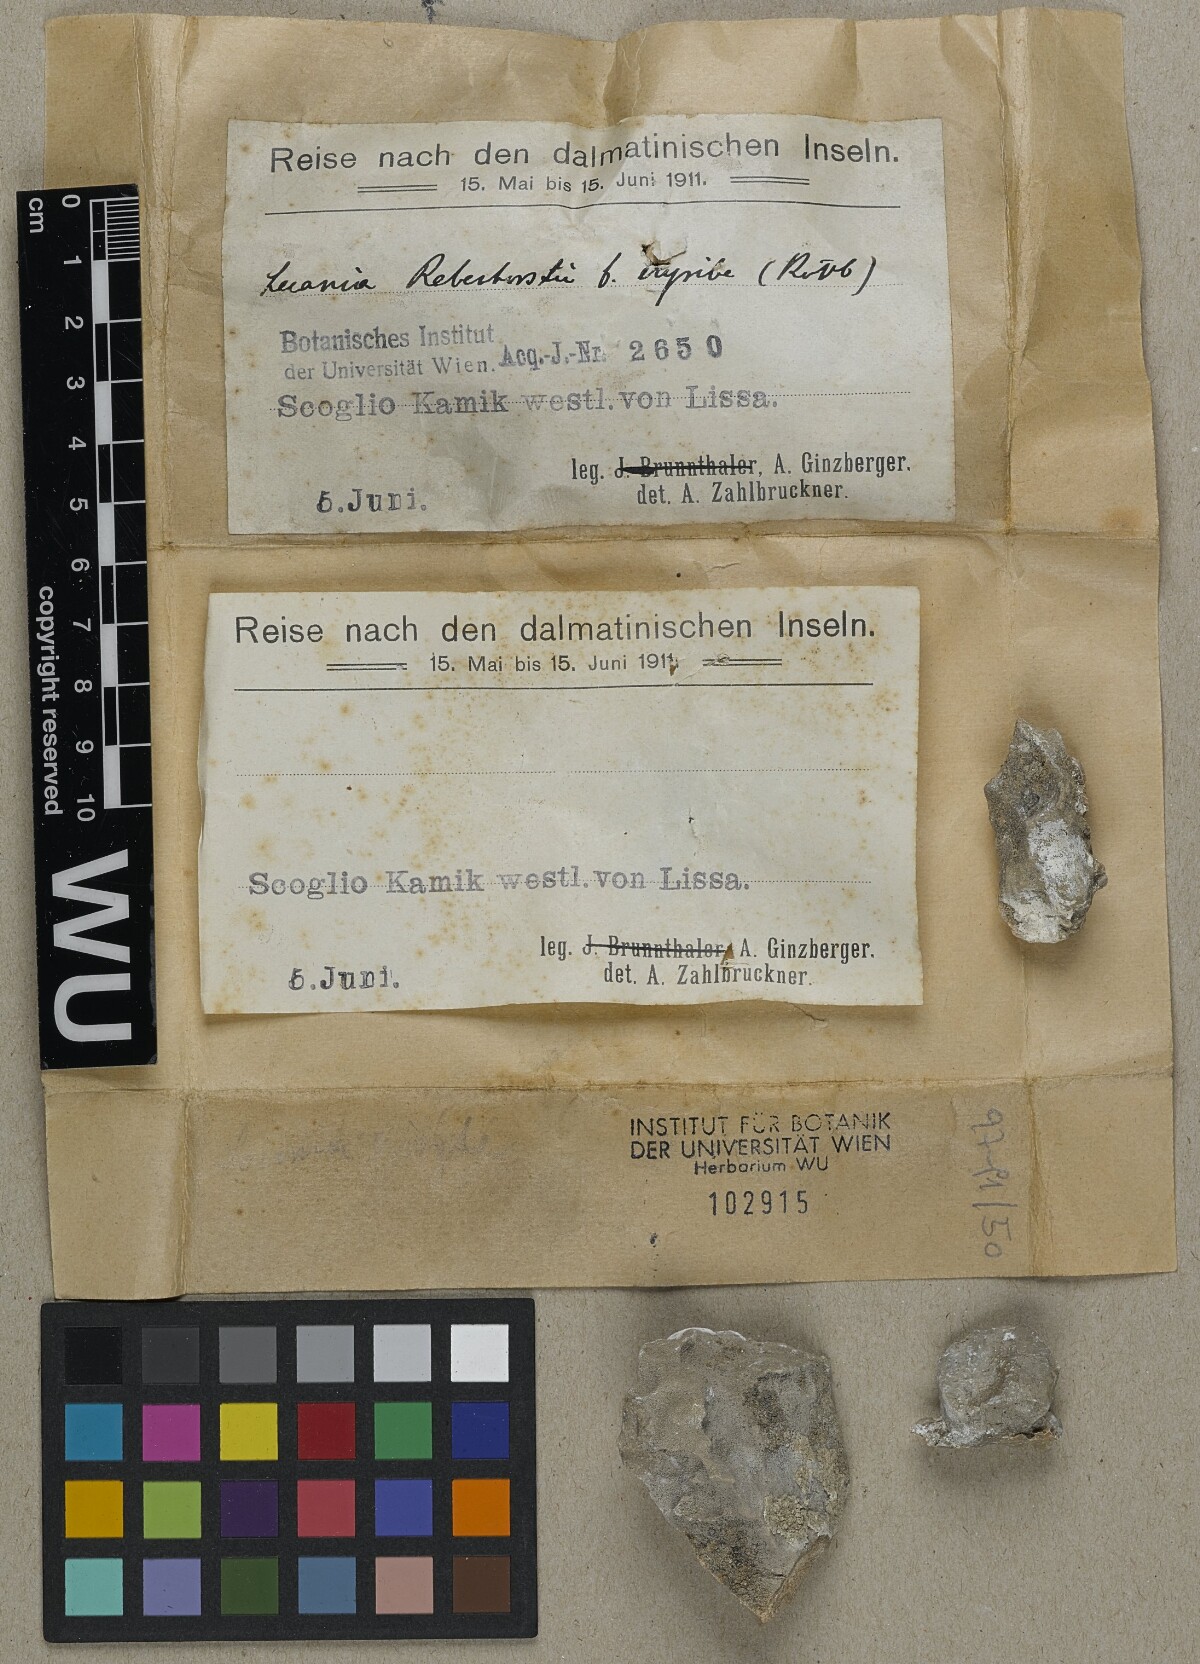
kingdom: Fungi
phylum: Ascomycota
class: Lecanoromycetes
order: Lecanorales
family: Ramalinaceae
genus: Lecania
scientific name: Lecania erysibe
